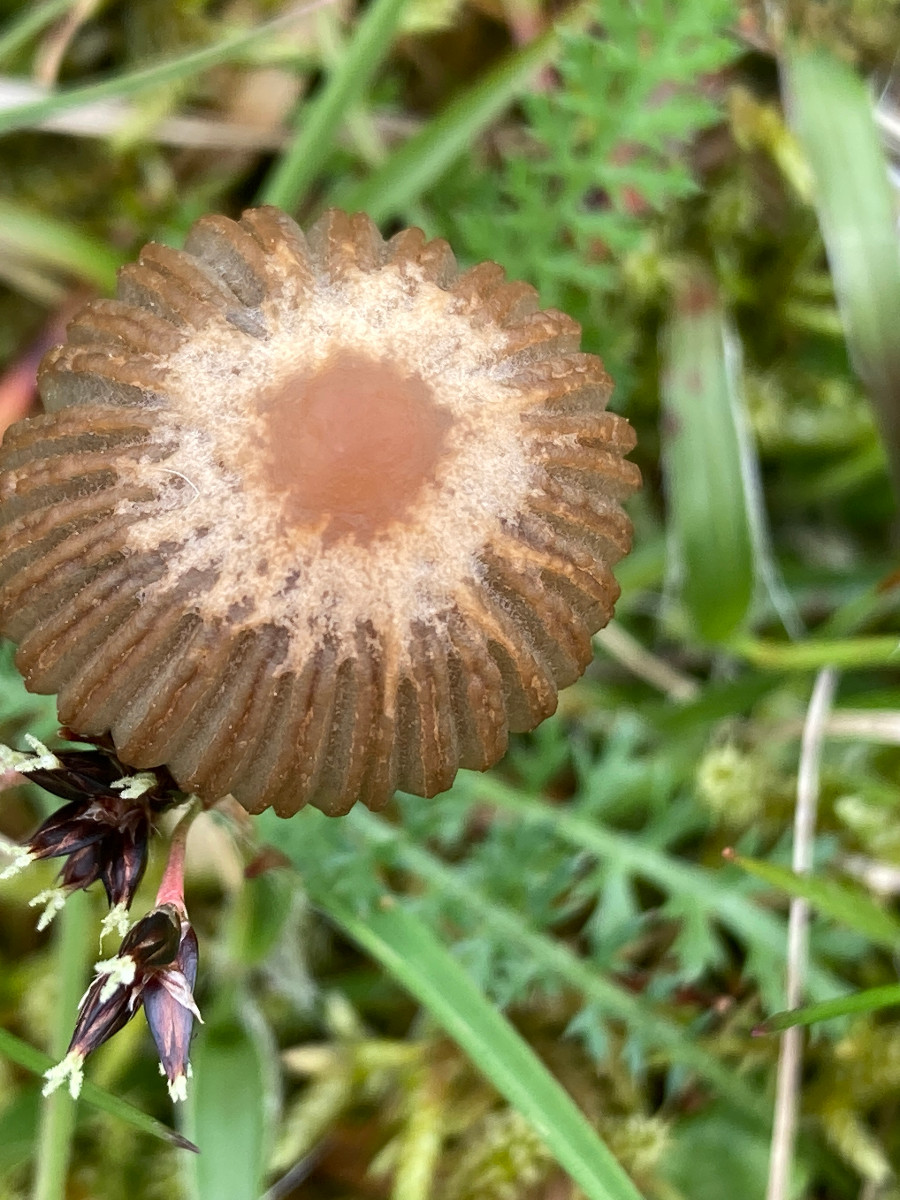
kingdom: Fungi
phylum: Basidiomycota
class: Agaricomycetes
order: Agaricales
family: Psathyrellaceae
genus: Parasola
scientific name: Parasola
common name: hjulhat
